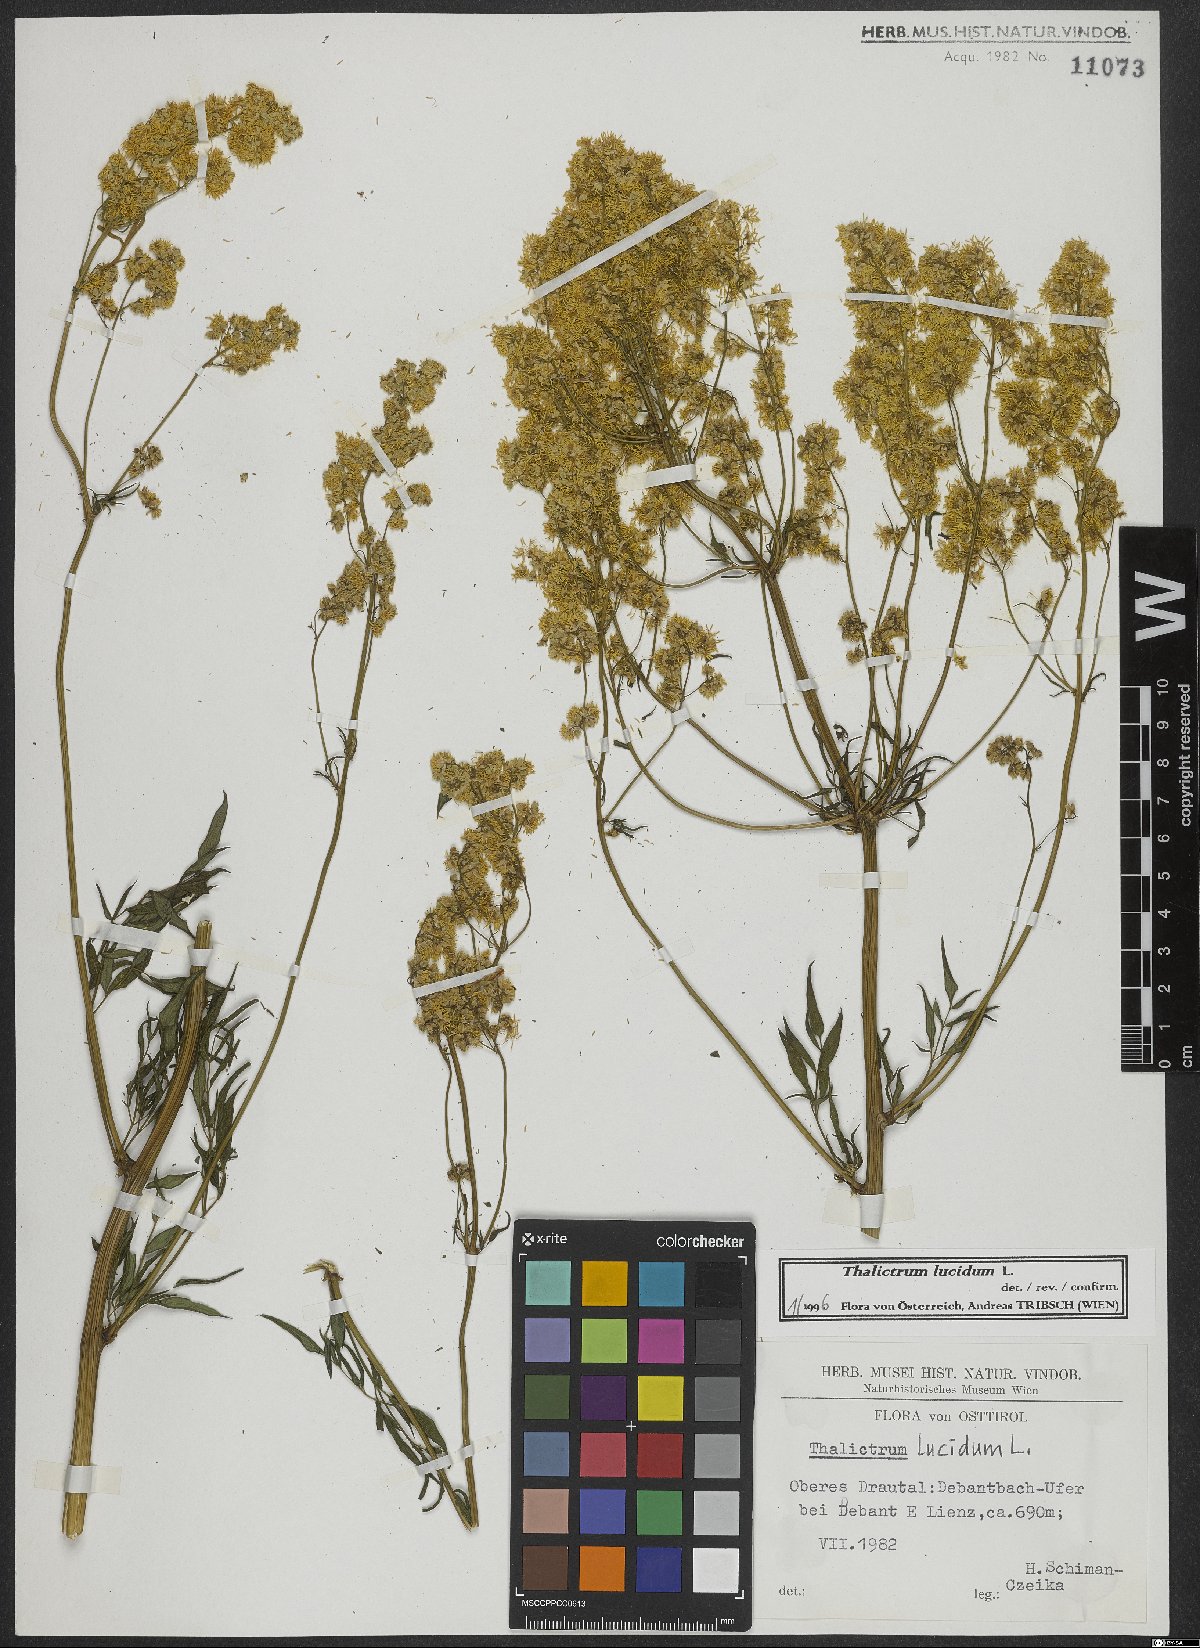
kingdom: Plantae
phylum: Tracheophyta
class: Magnoliopsida
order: Ranunculales
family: Ranunculaceae
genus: Thalictrum
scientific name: Thalictrum lucidum
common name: Shining meadow-rue
